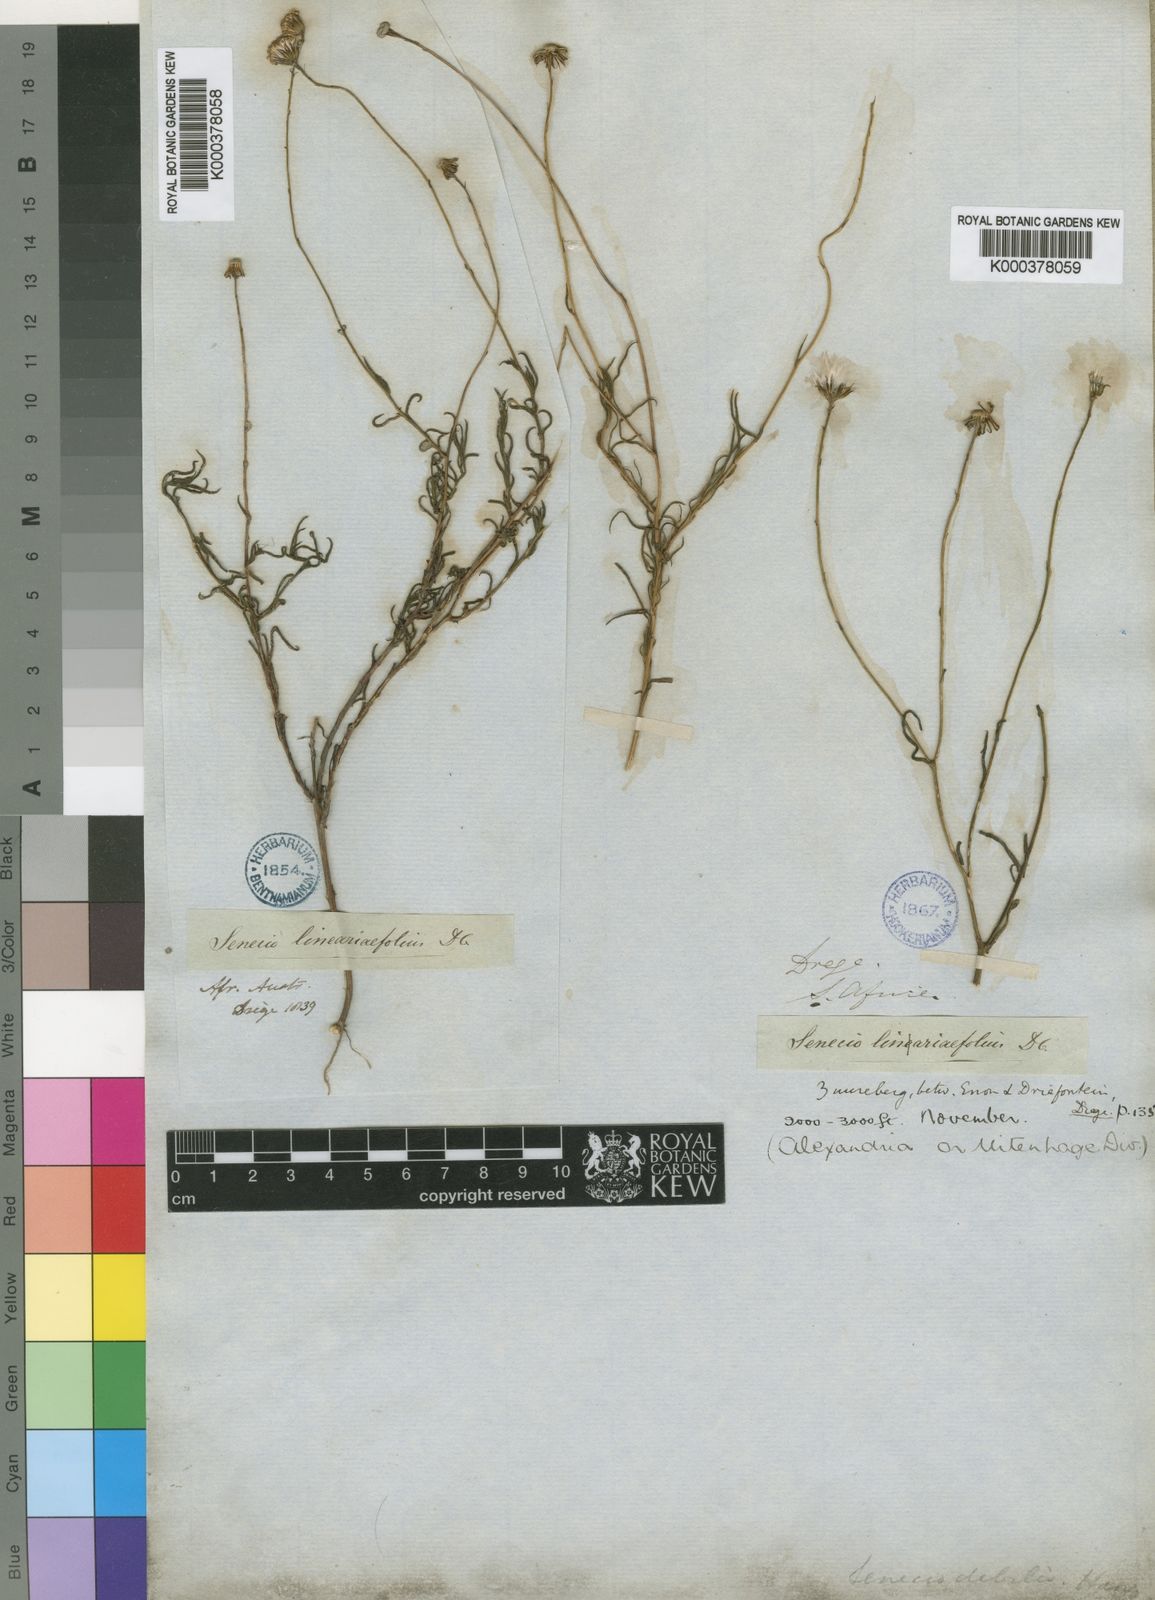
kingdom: Plantae
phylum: Tracheophyta
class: Magnoliopsida
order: Asterales
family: Asteraceae
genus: Senecio
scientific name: Senecio infirmus
